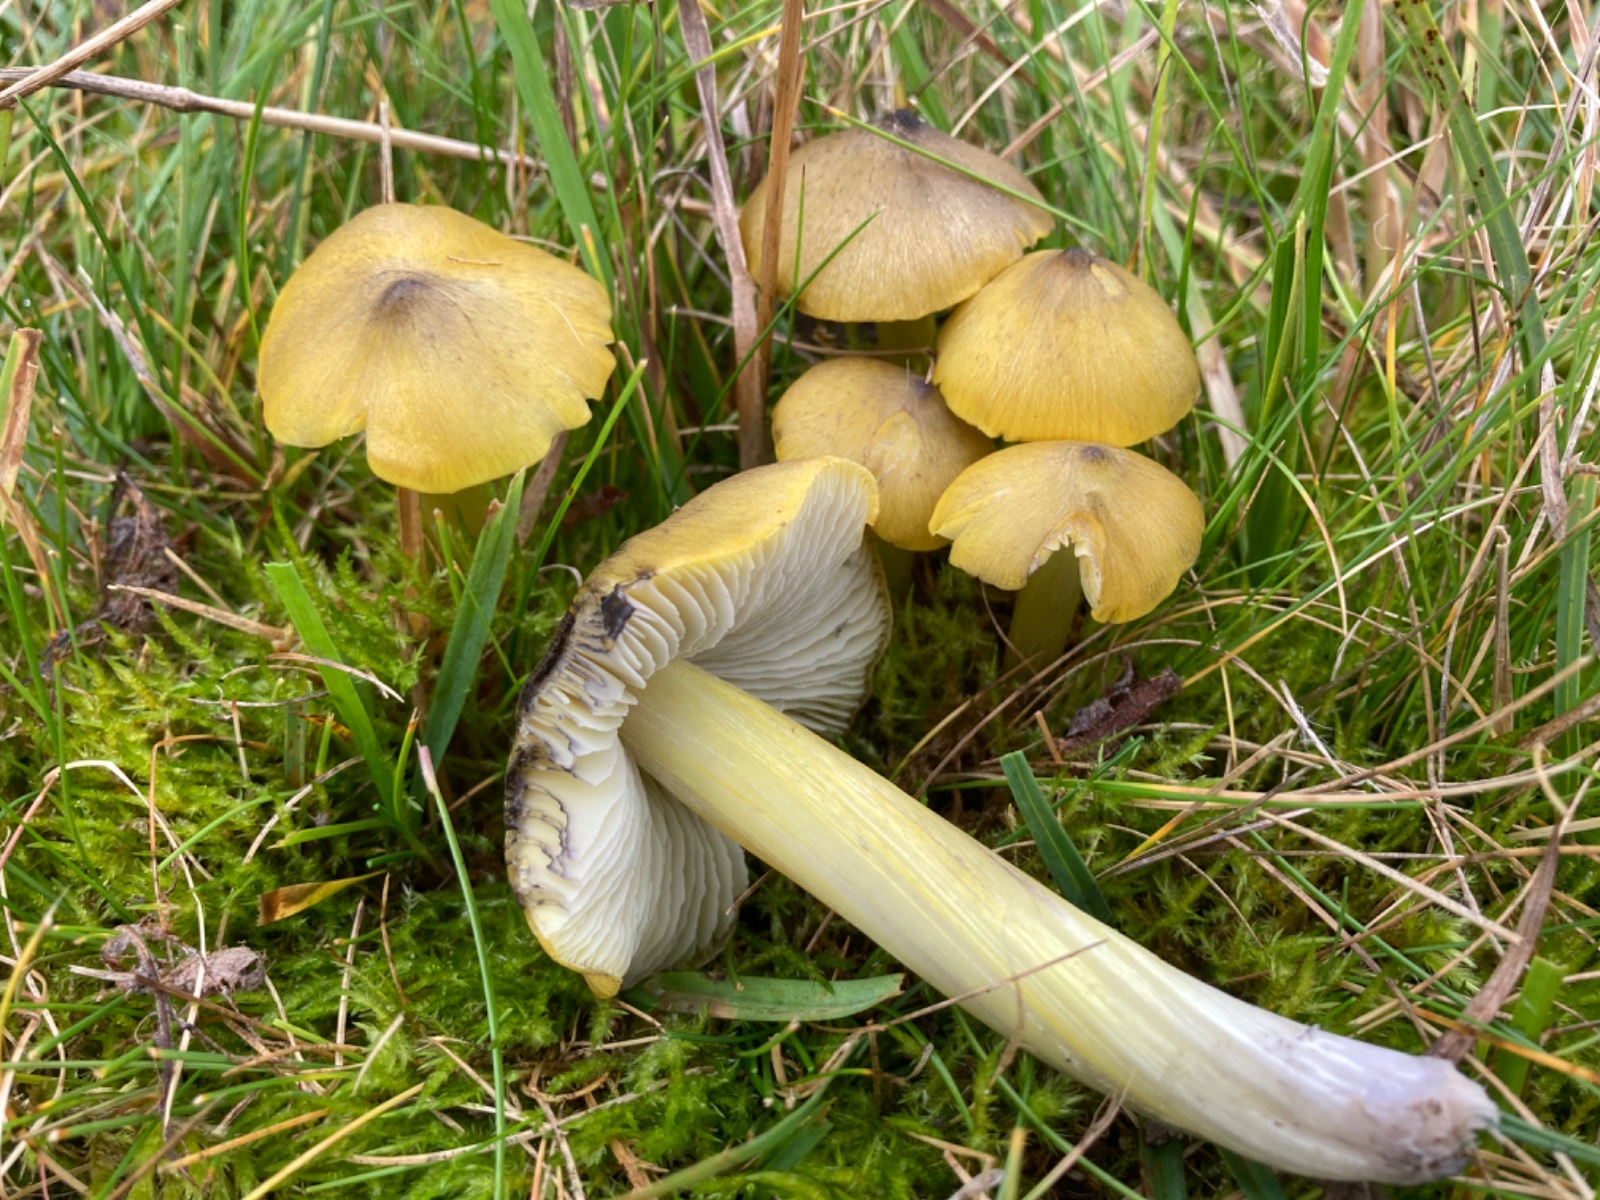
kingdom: Fungi
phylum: Basidiomycota
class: Agaricomycetes
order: Agaricales
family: Hygrophoraceae
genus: Hygrocybe
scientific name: Hygrocybe conica
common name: Blackening wax-cap
